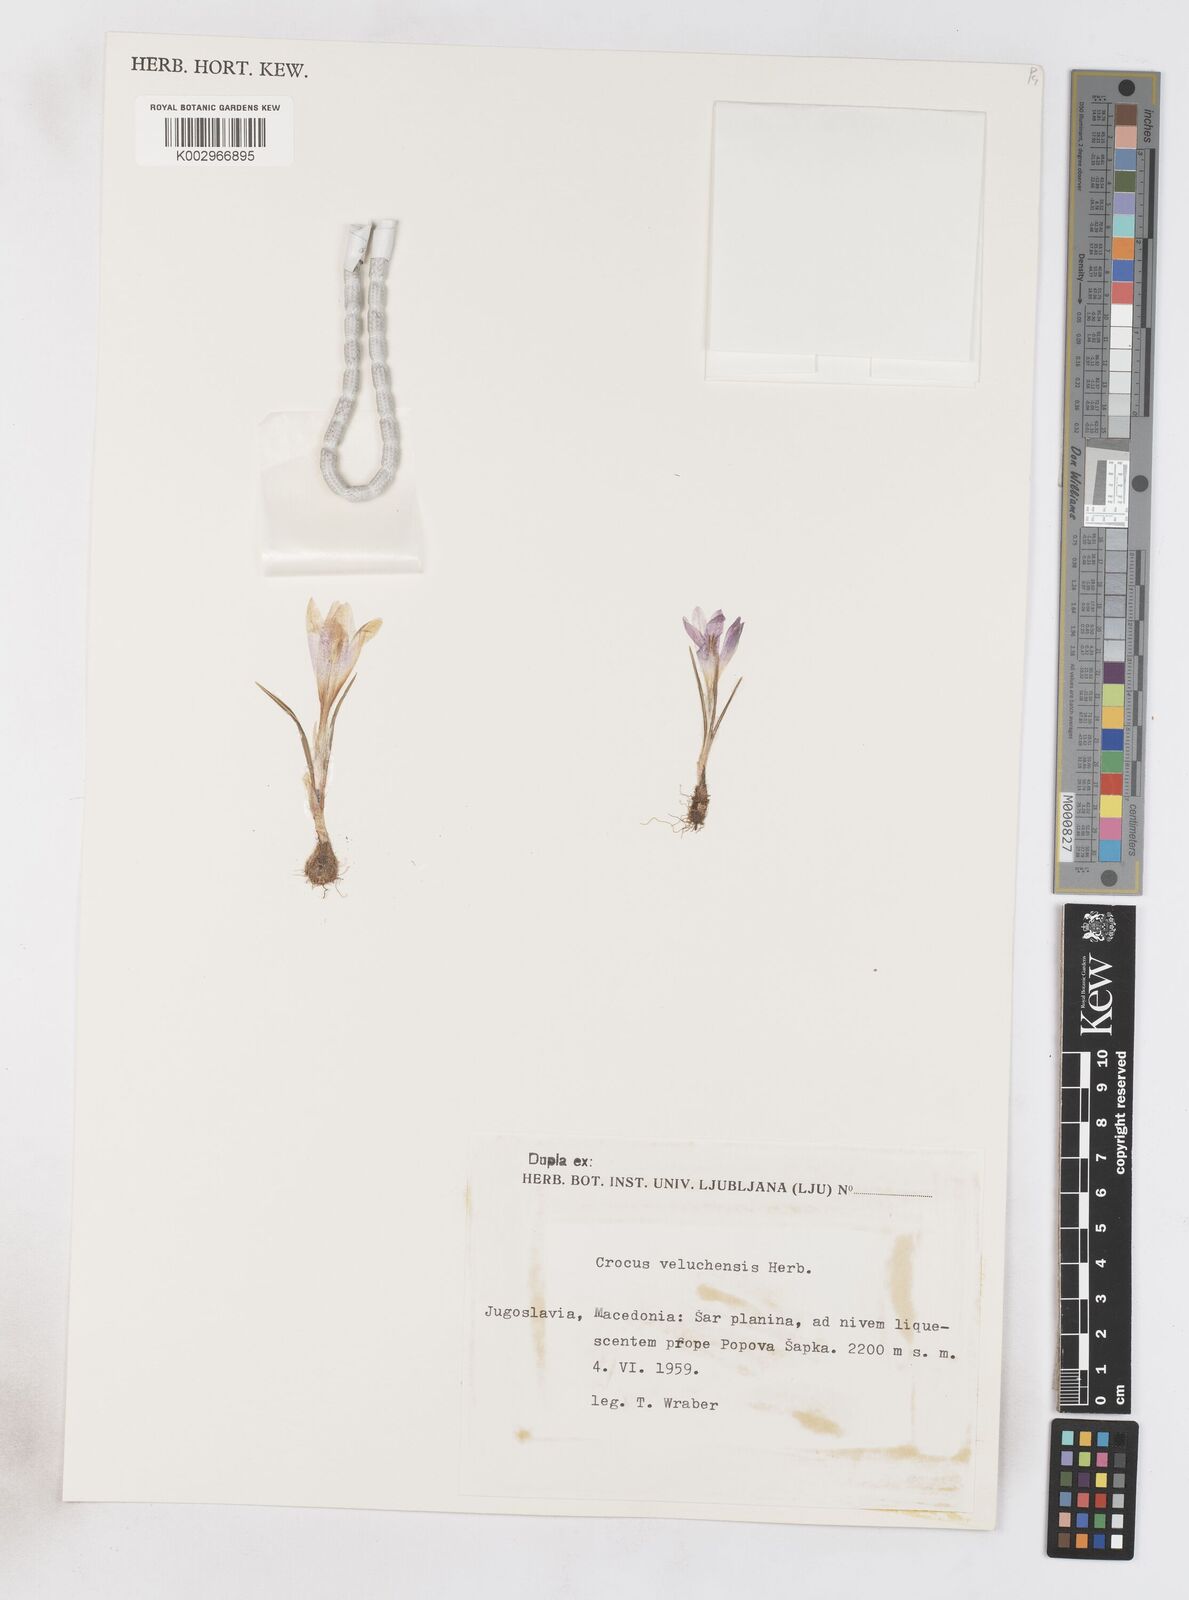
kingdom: Plantae
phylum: Tracheophyta
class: Liliopsida
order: Asparagales
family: Iridaceae
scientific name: Iridaceae
